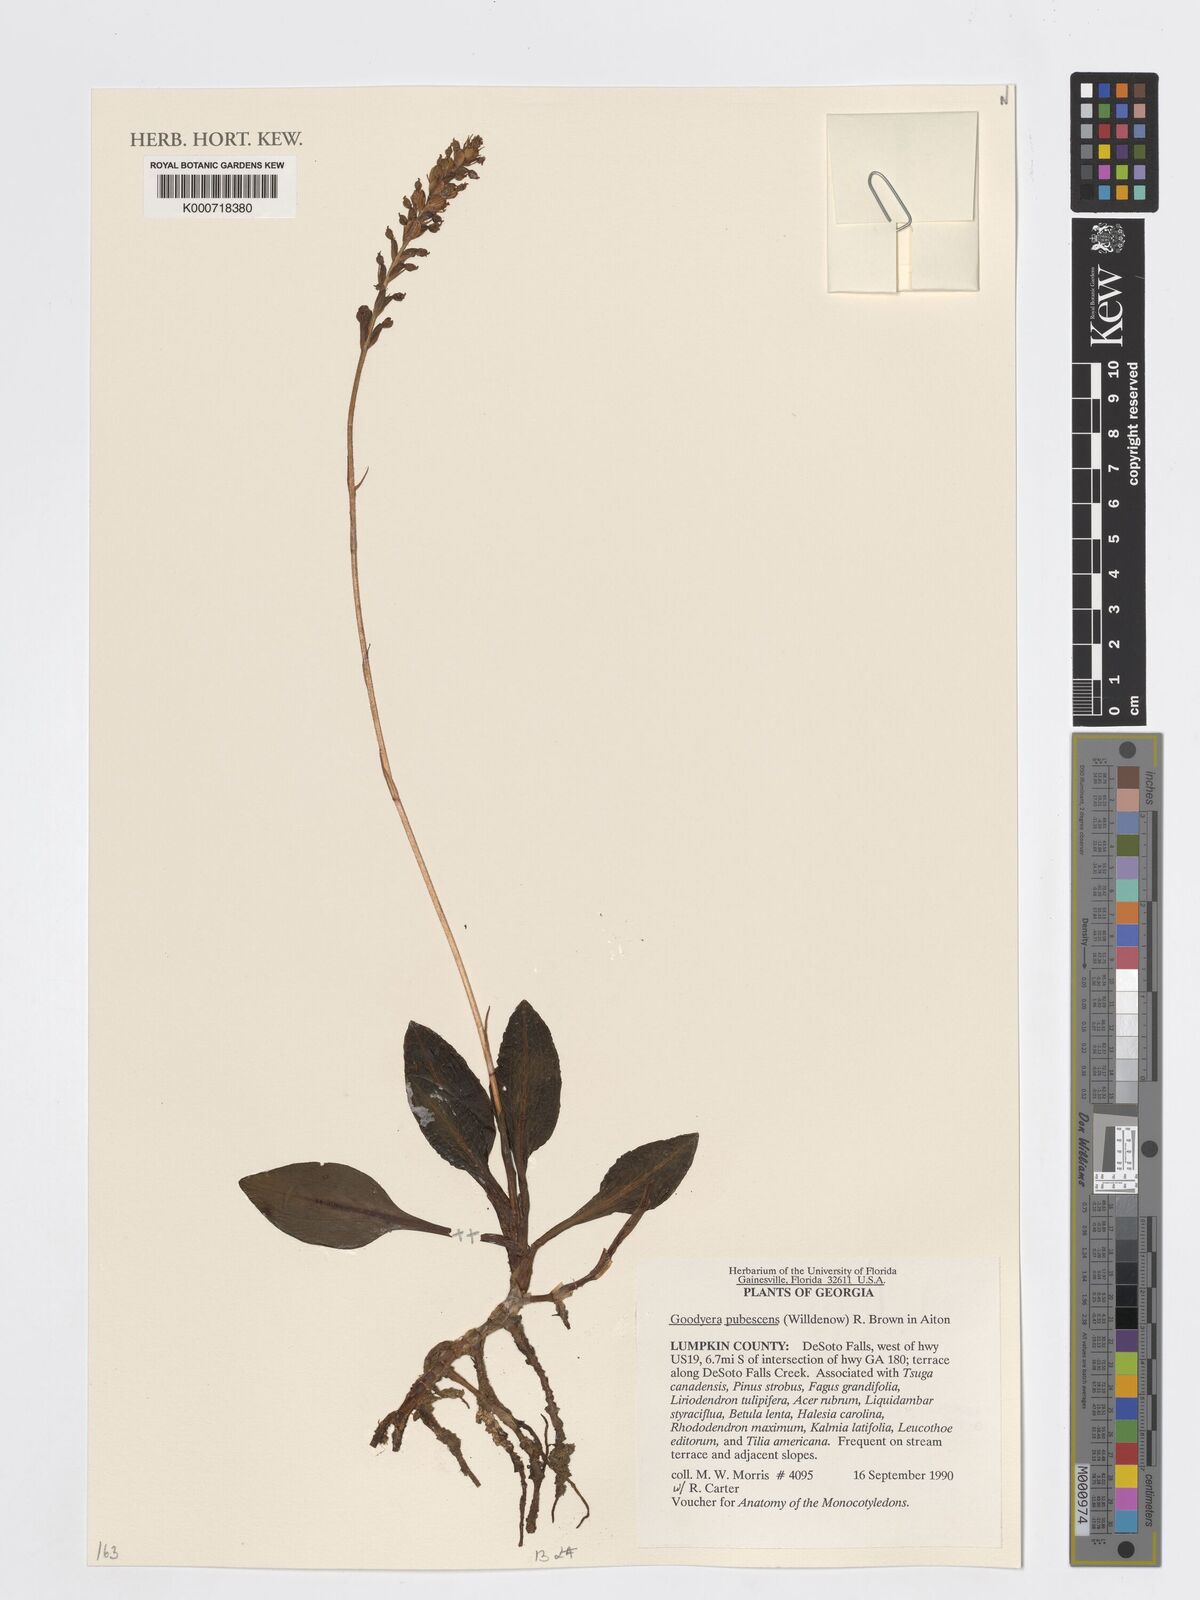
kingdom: Plantae
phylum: Tracheophyta
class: Liliopsida
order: Asparagales
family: Orchidaceae
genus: Goodyera
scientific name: Goodyera pubescens
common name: Downy rattlesnake-plantain
